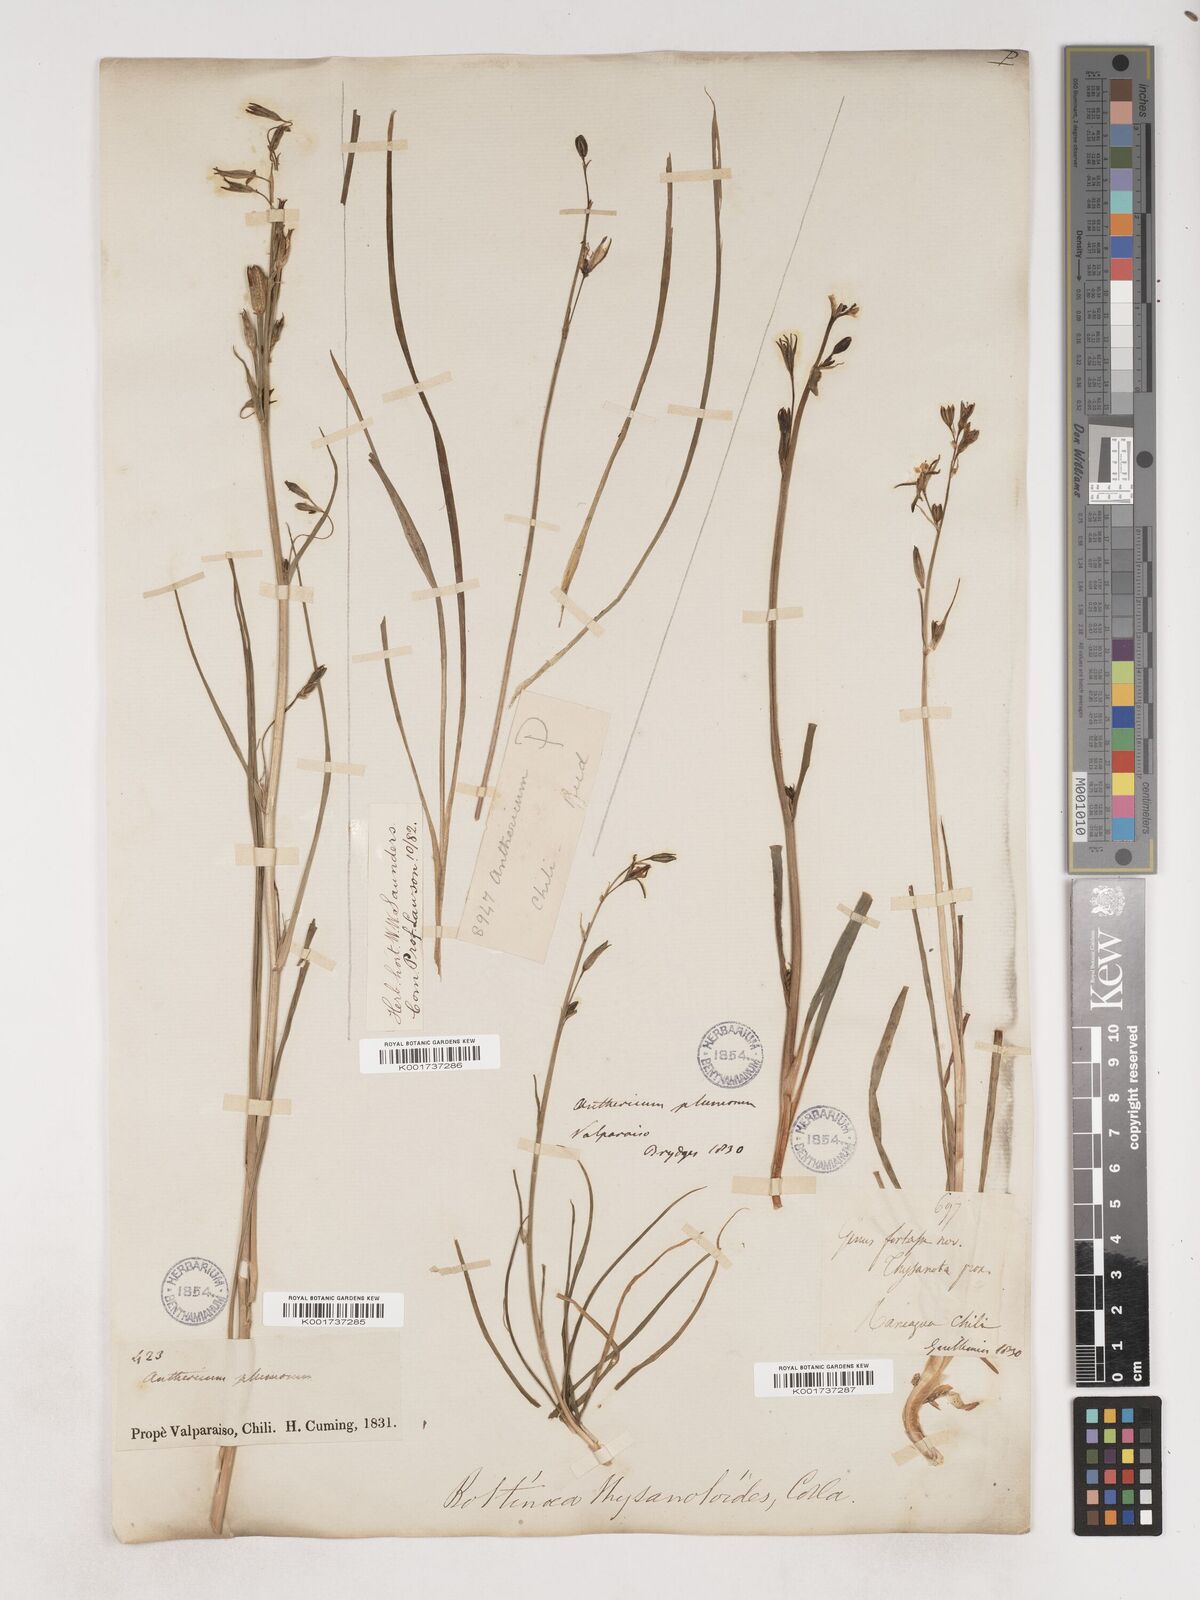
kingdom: Plantae
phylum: Tracheophyta
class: Liliopsida
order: Asparagales
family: Asparagaceae
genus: Trichopetalum
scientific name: Trichopetalum plumosum
